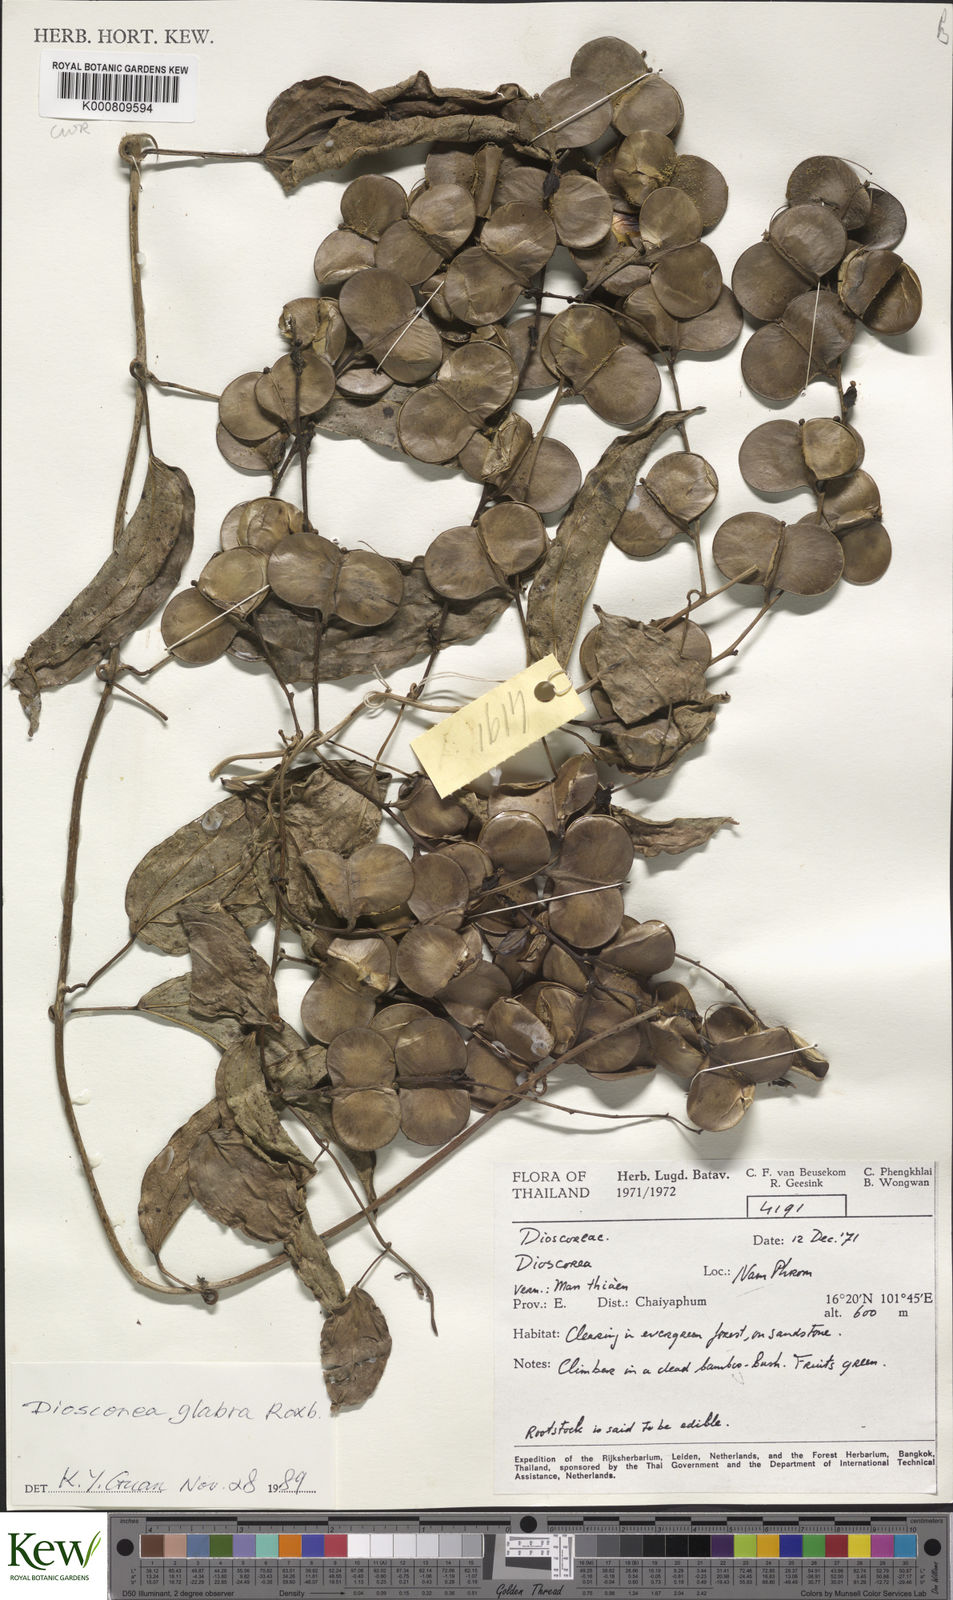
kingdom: Plantae
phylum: Tracheophyta
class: Liliopsida
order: Dioscoreales
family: Dioscoreaceae
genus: Dioscorea
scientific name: Dioscorea glabra
